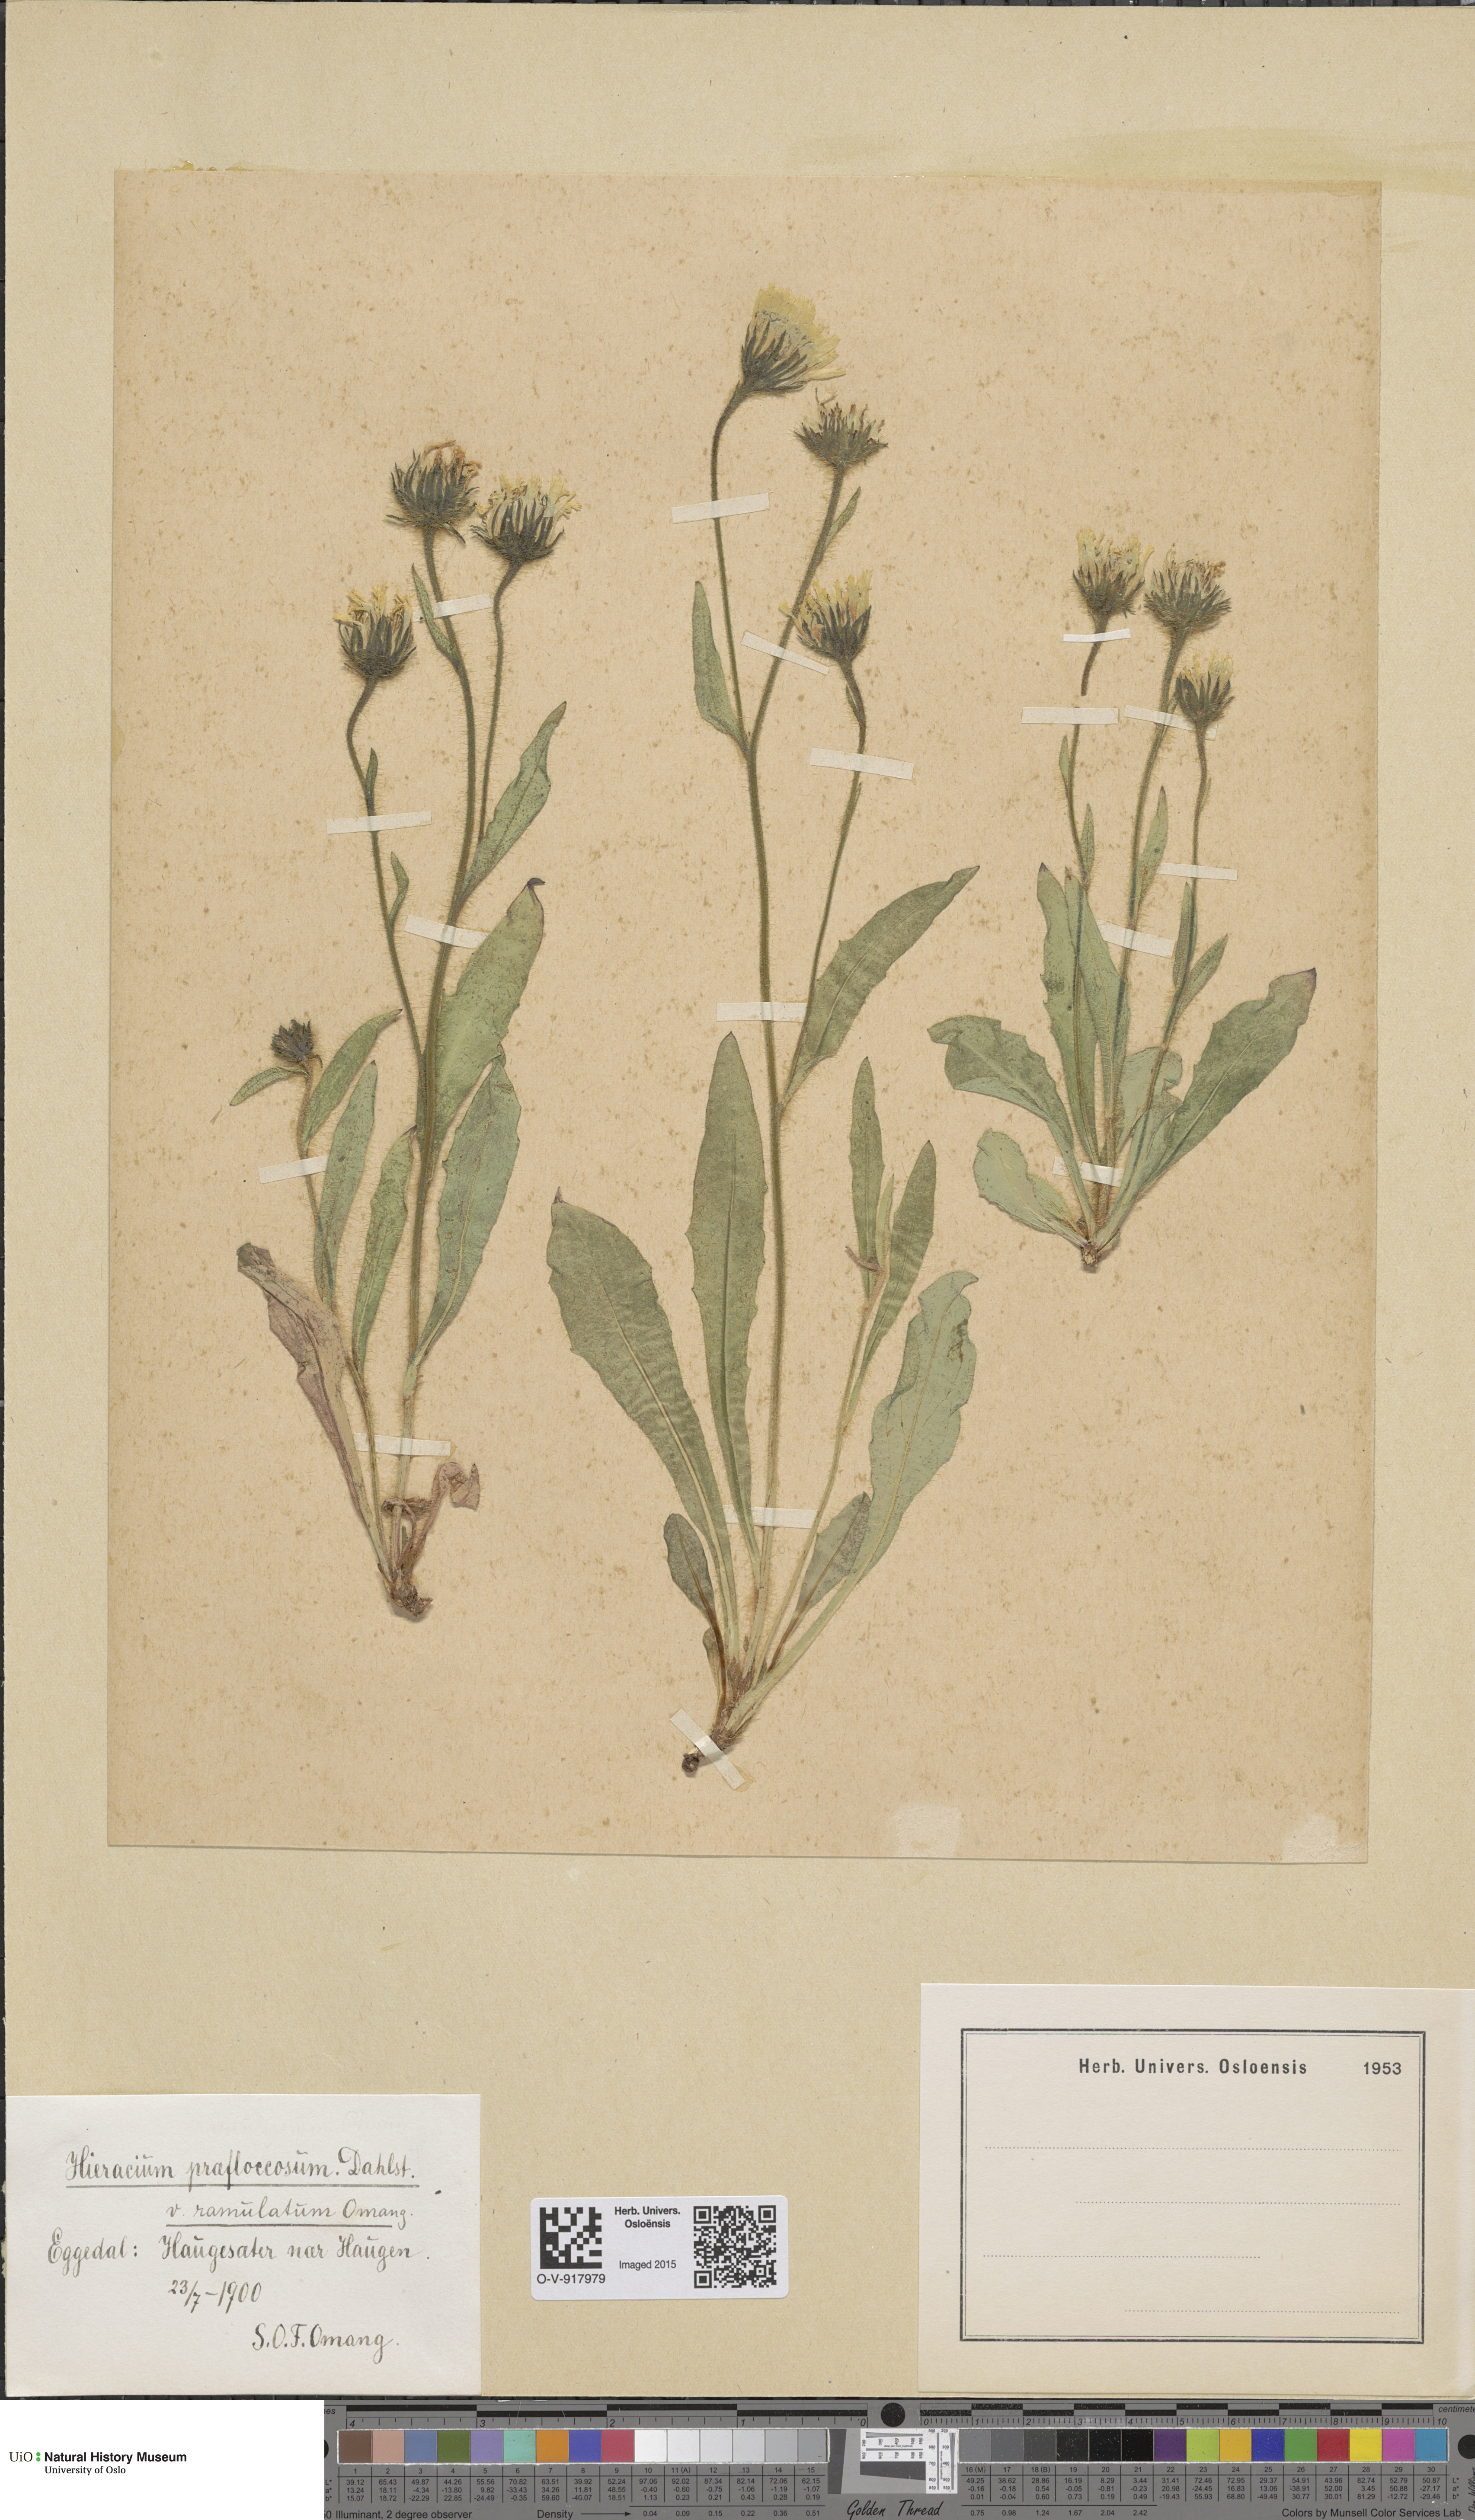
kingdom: Plantae
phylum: Tracheophyta
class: Magnoliopsida
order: Asterales
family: Asteraceae
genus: Hieracium
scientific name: Hieracium
